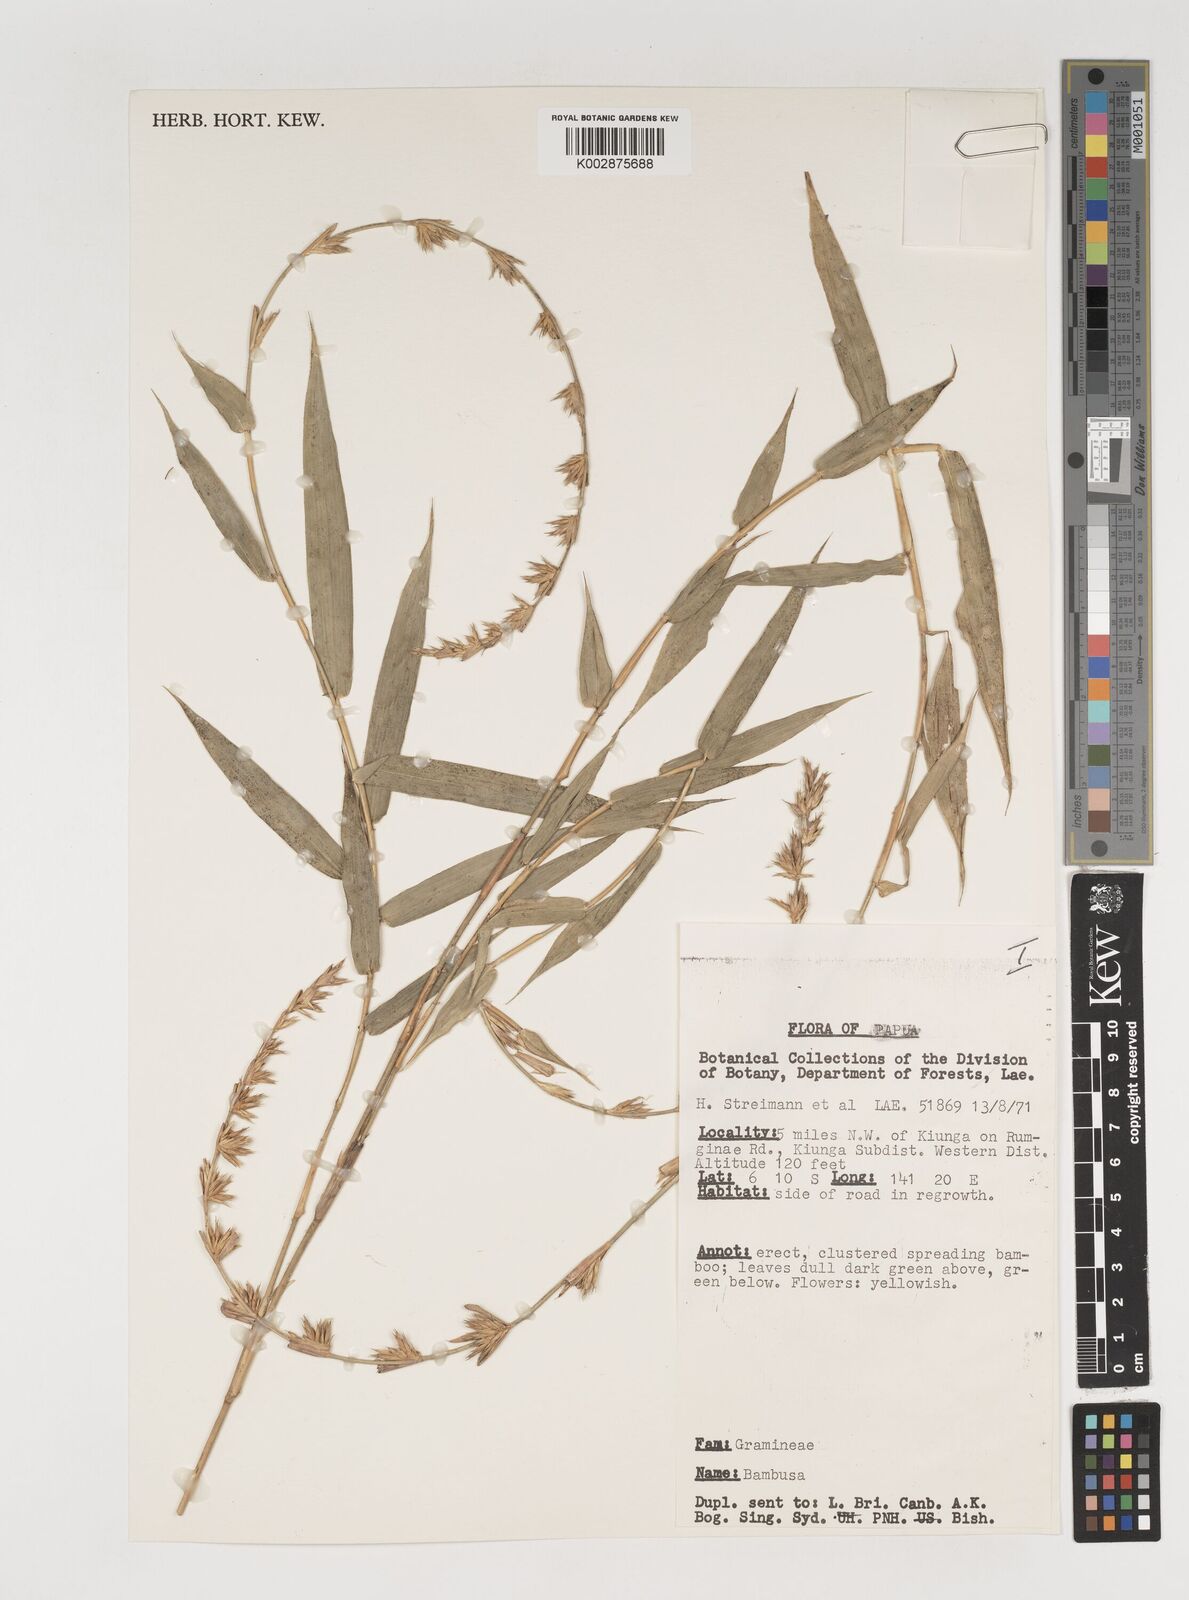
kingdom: Plantae
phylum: Tracheophyta
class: Liliopsida
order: Poales
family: Poaceae
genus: Neololeba
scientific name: Neololeba atra
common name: Cape bamboo
